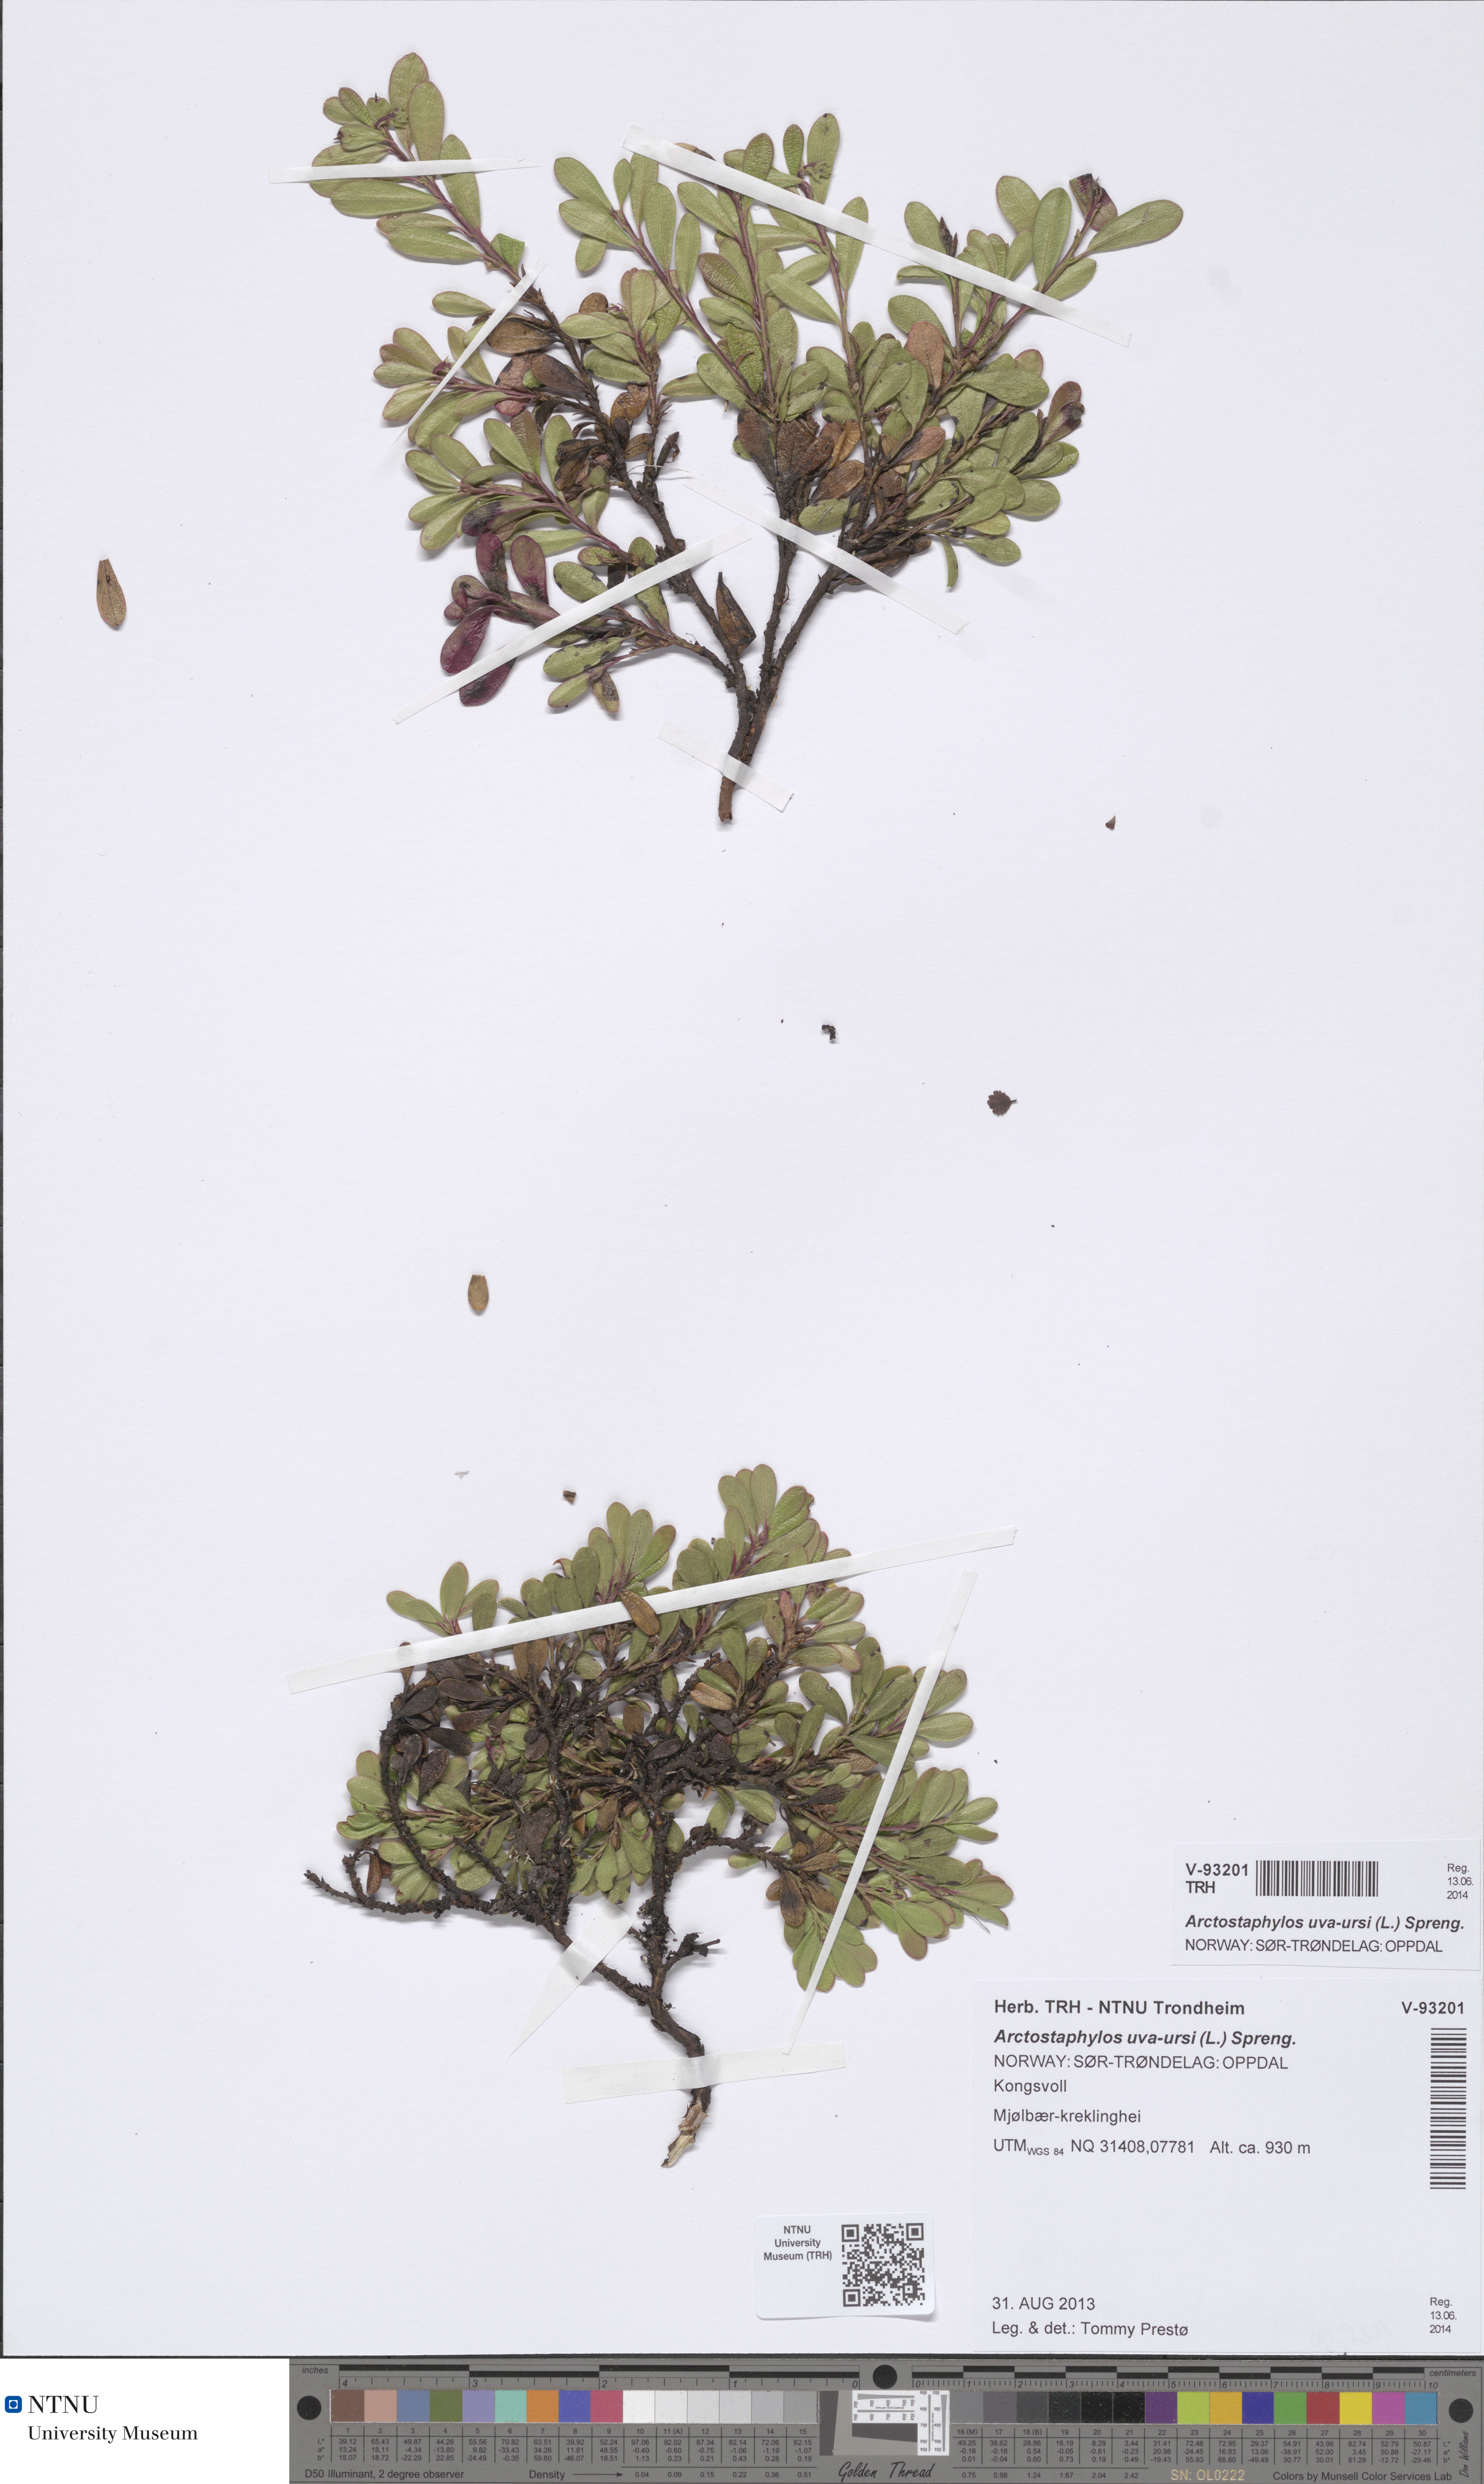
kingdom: Plantae
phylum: Tracheophyta
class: Magnoliopsida
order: Ericales
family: Ericaceae
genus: Arctostaphylos
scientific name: Arctostaphylos uva-ursi
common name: Bearberry
